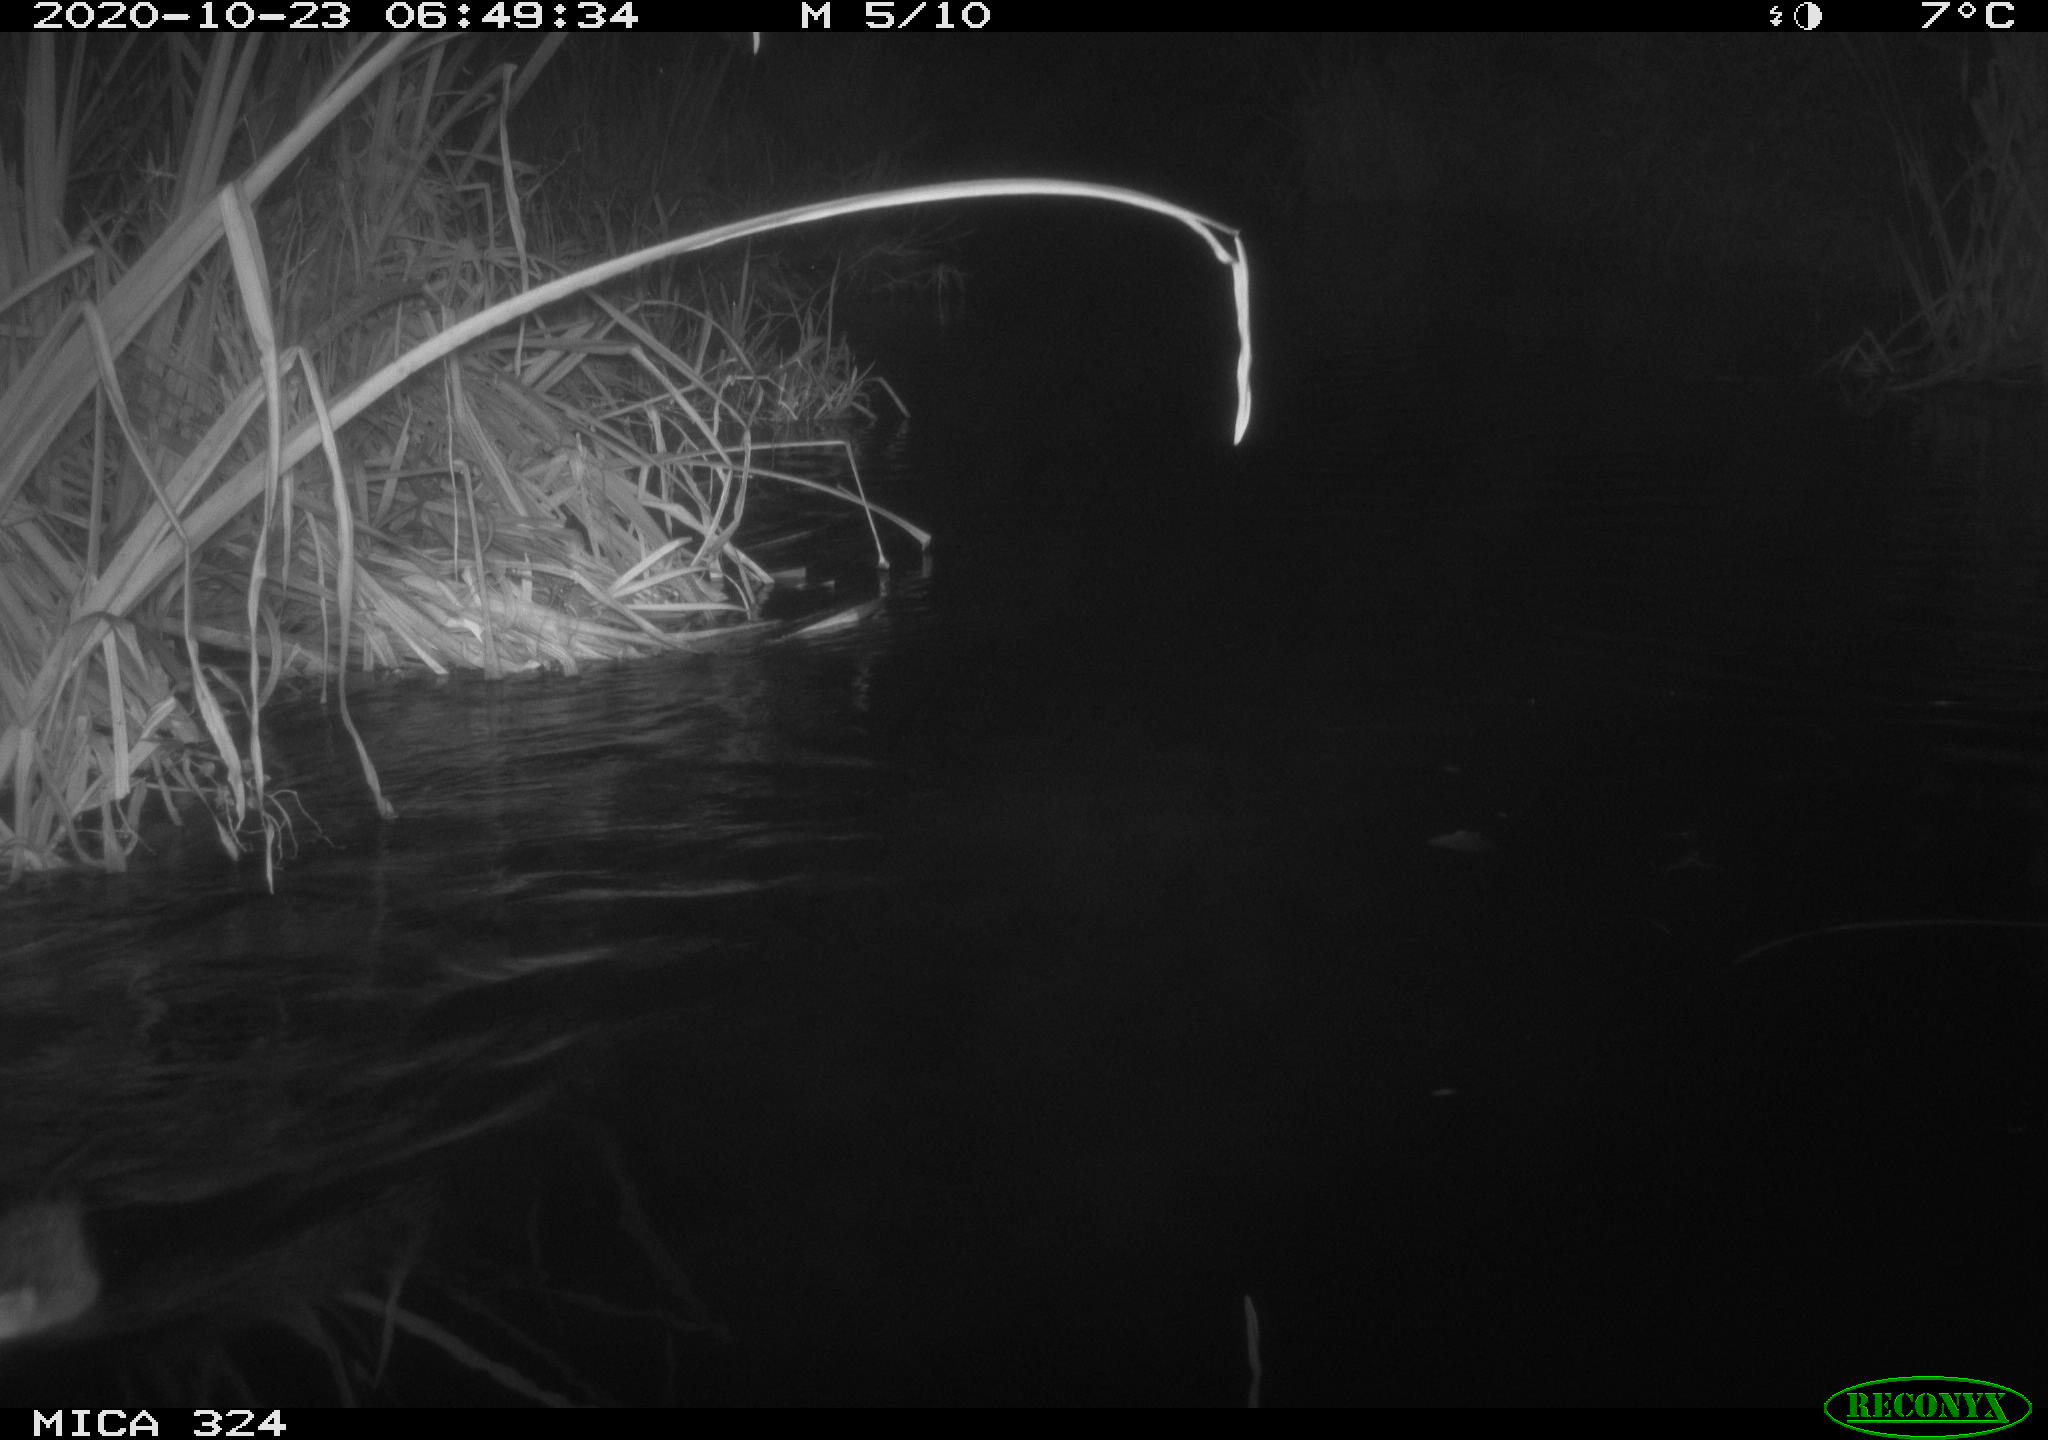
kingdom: Animalia
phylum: Chordata
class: Mammalia
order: Rodentia
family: Cricetidae
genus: Ondatra
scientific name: Ondatra zibethicus
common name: Muskrat
